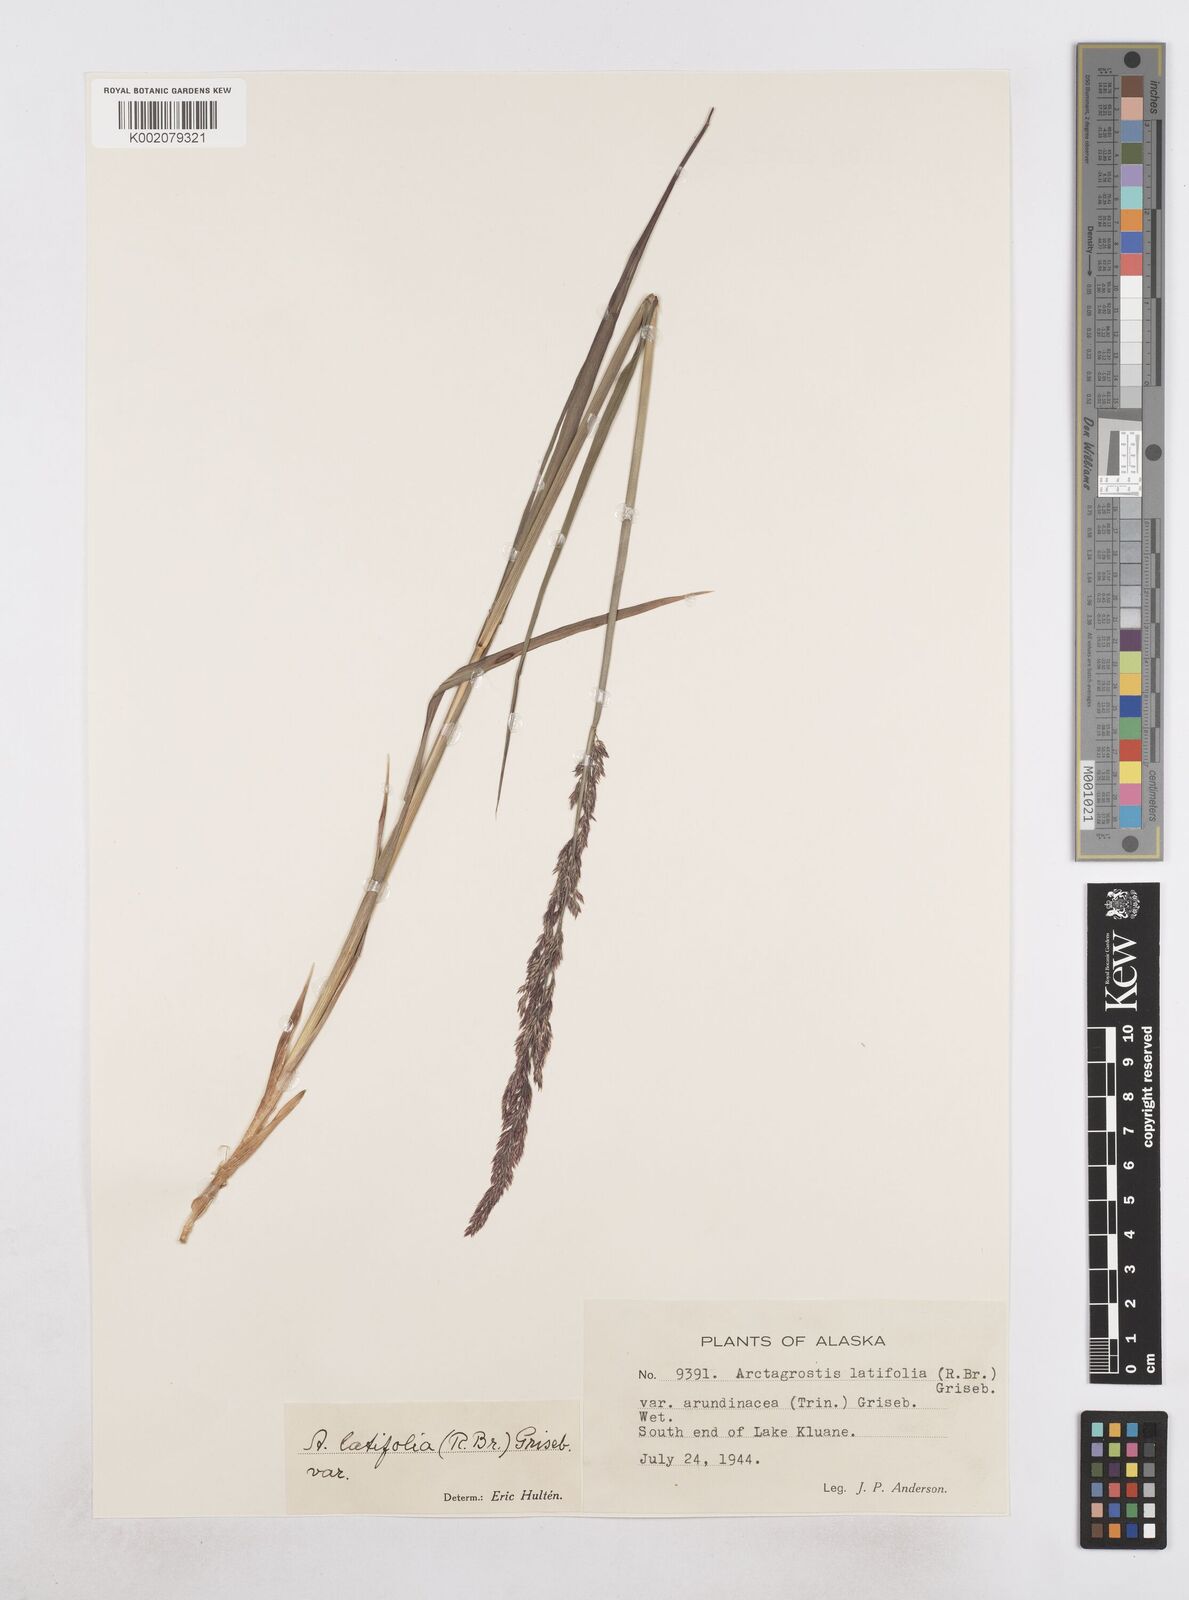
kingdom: Plantae
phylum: Tracheophyta
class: Liliopsida
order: Poales
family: Poaceae
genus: Arctagrostis
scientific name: Arctagrostis arundinacea
